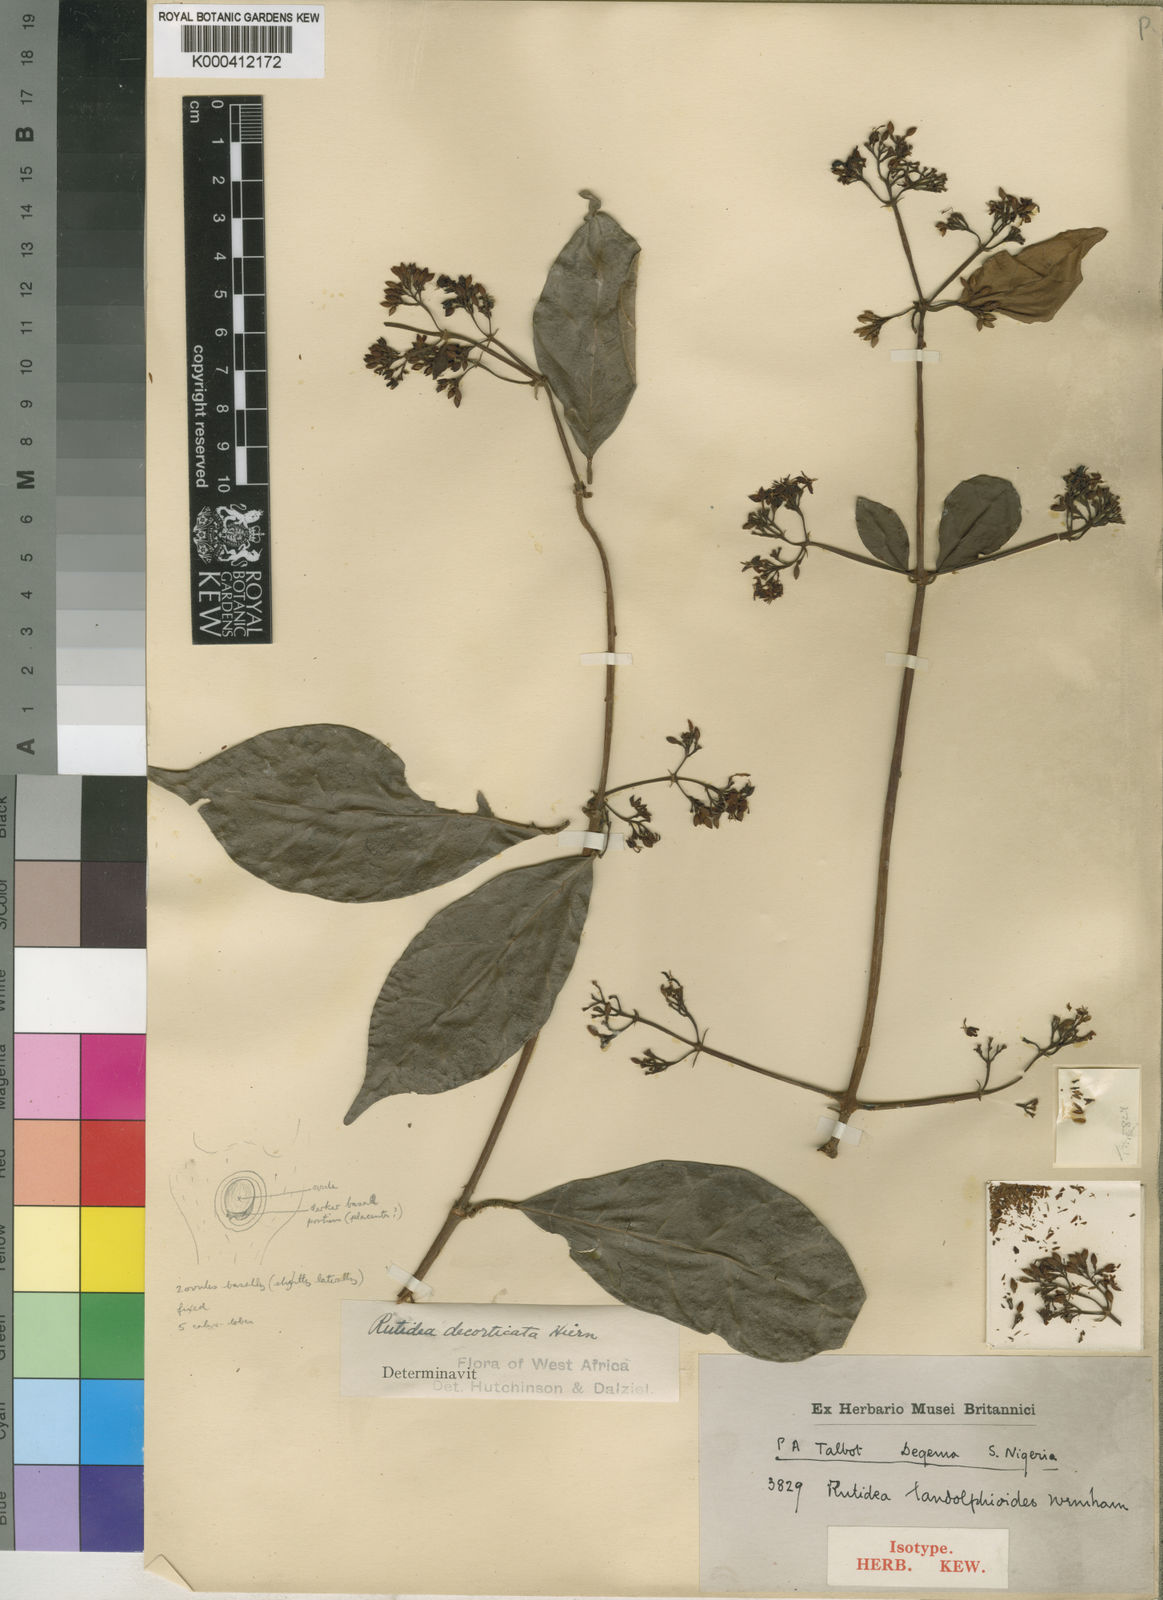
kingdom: Plantae
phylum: Tracheophyta
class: Magnoliopsida
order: Gentianales
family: Rubiaceae
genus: Rutidea
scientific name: Rutidea decorticata
